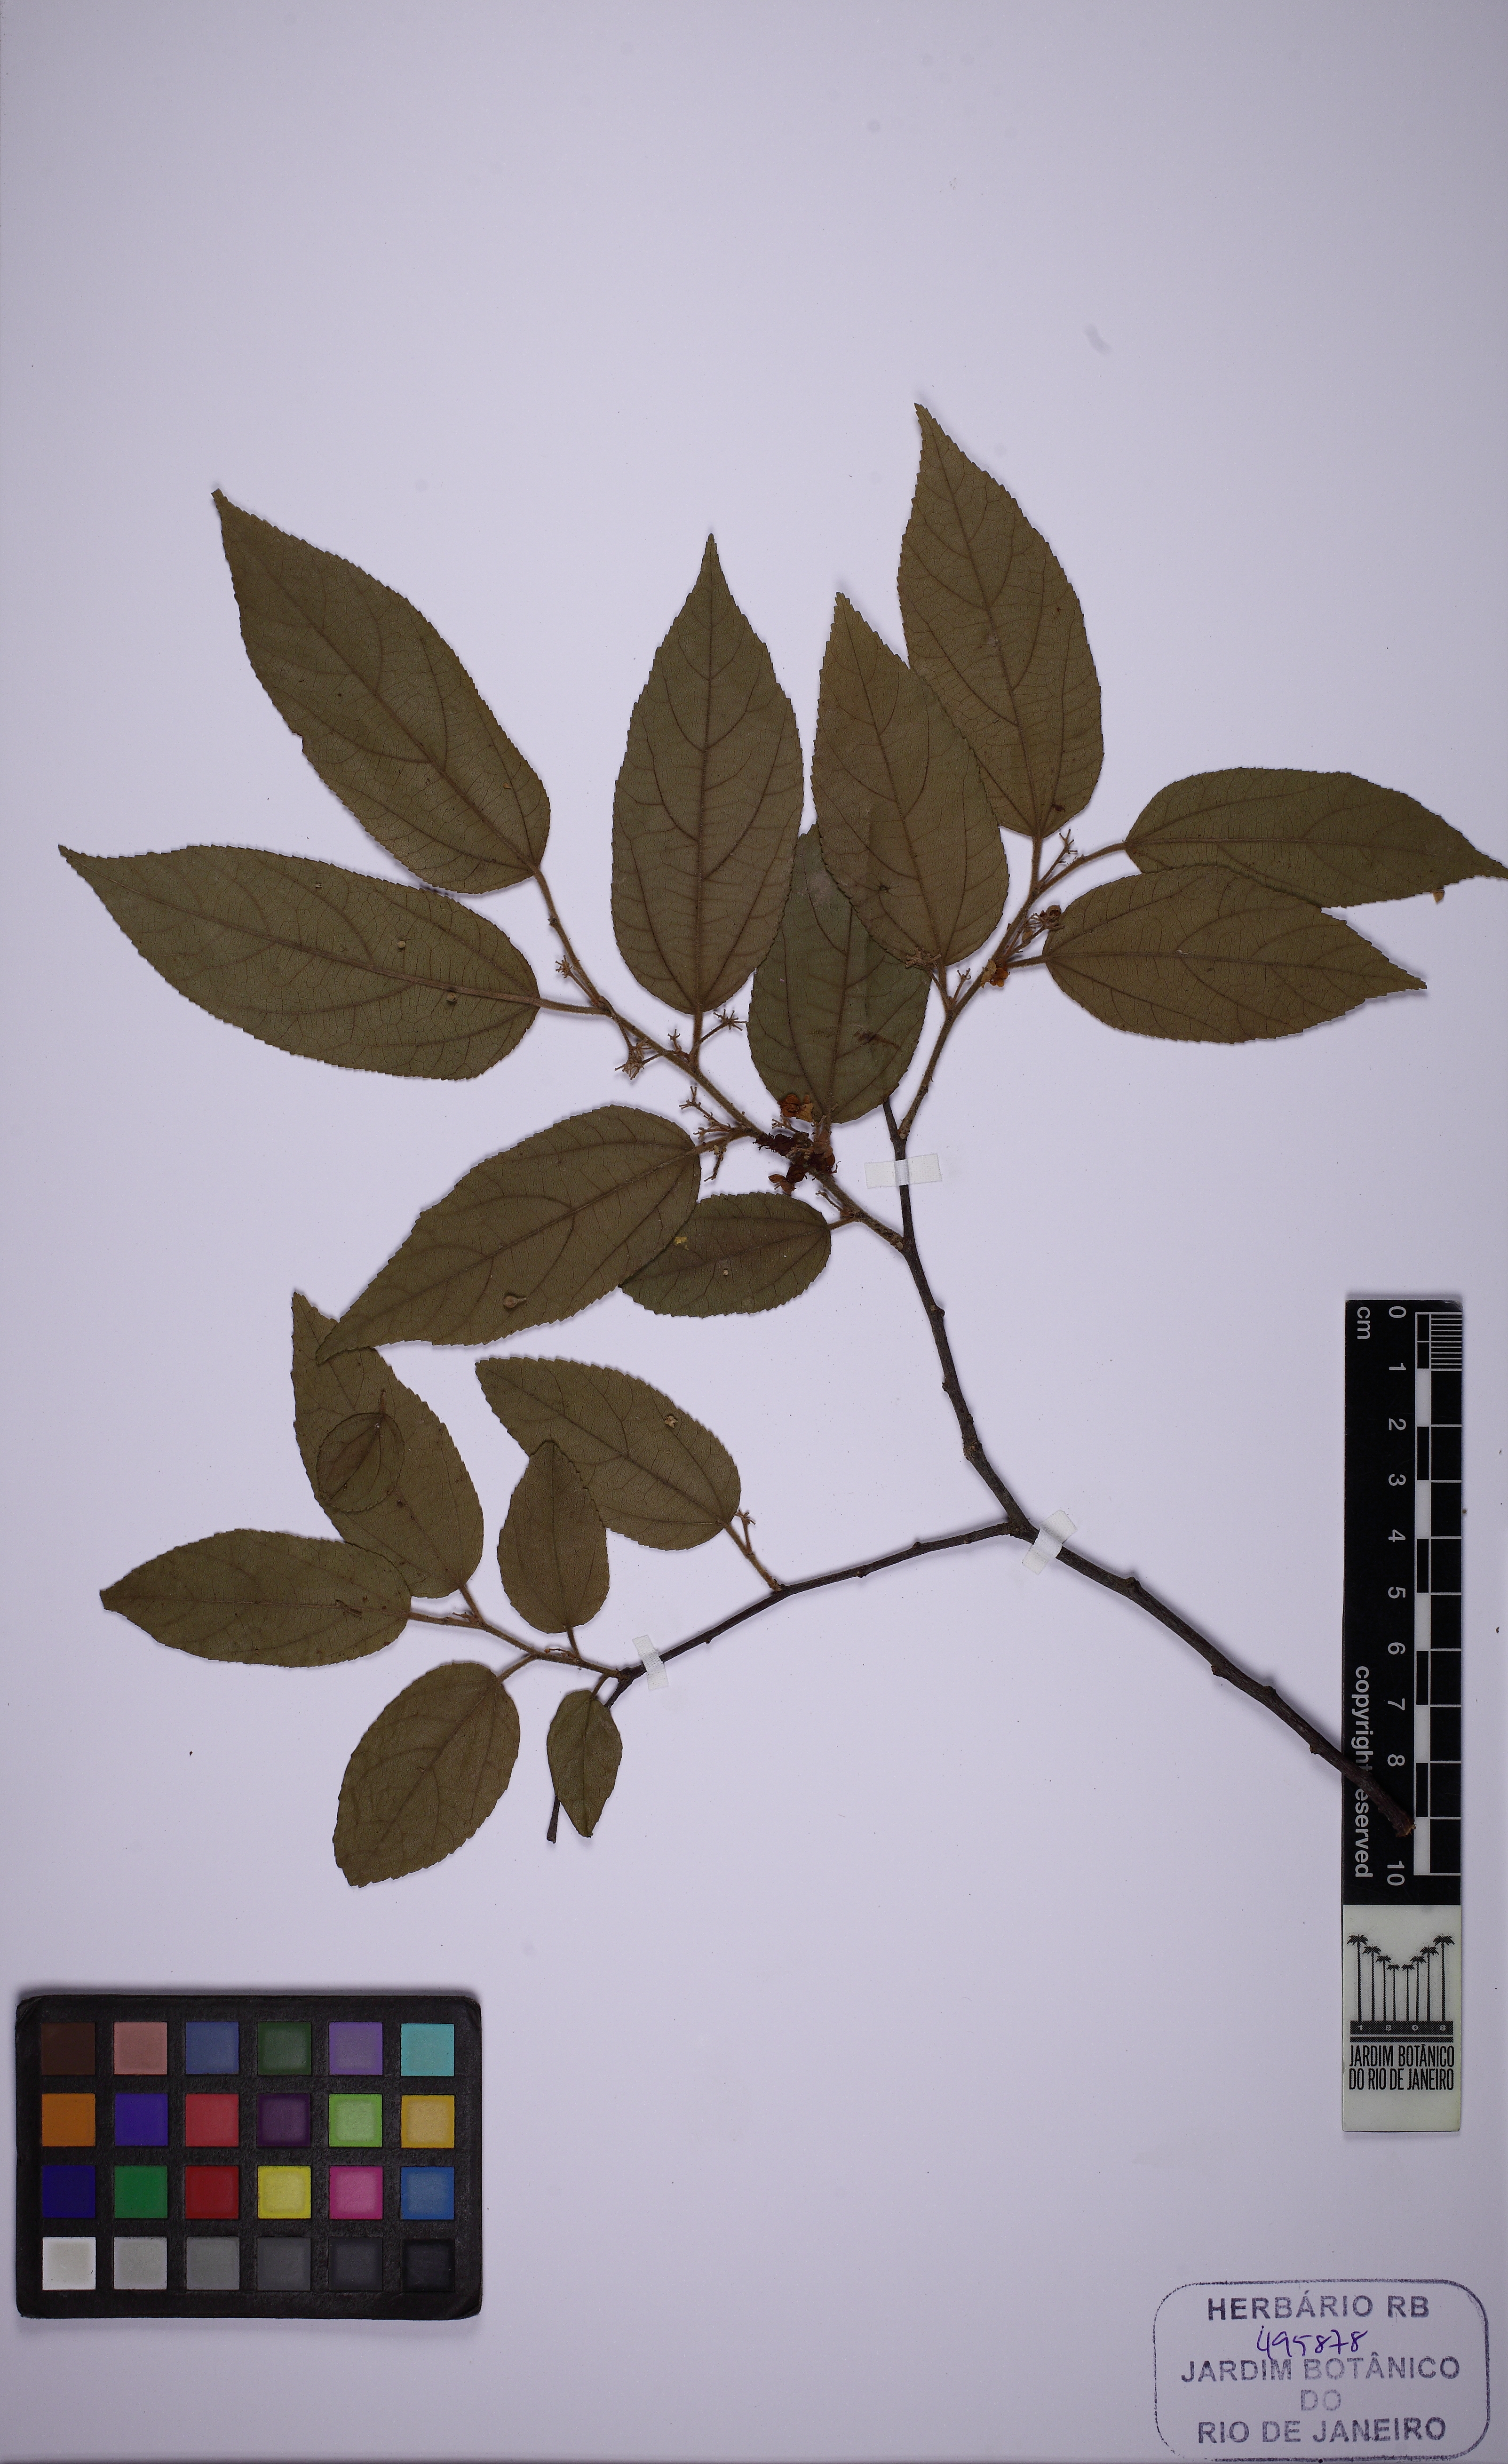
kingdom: Plantae
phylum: Tracheophyta
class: Magnoliopsida
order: Malvales
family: Malvaceae
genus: Guazuma
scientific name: Guazuma ulmifolia
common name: Bastard-cedar
